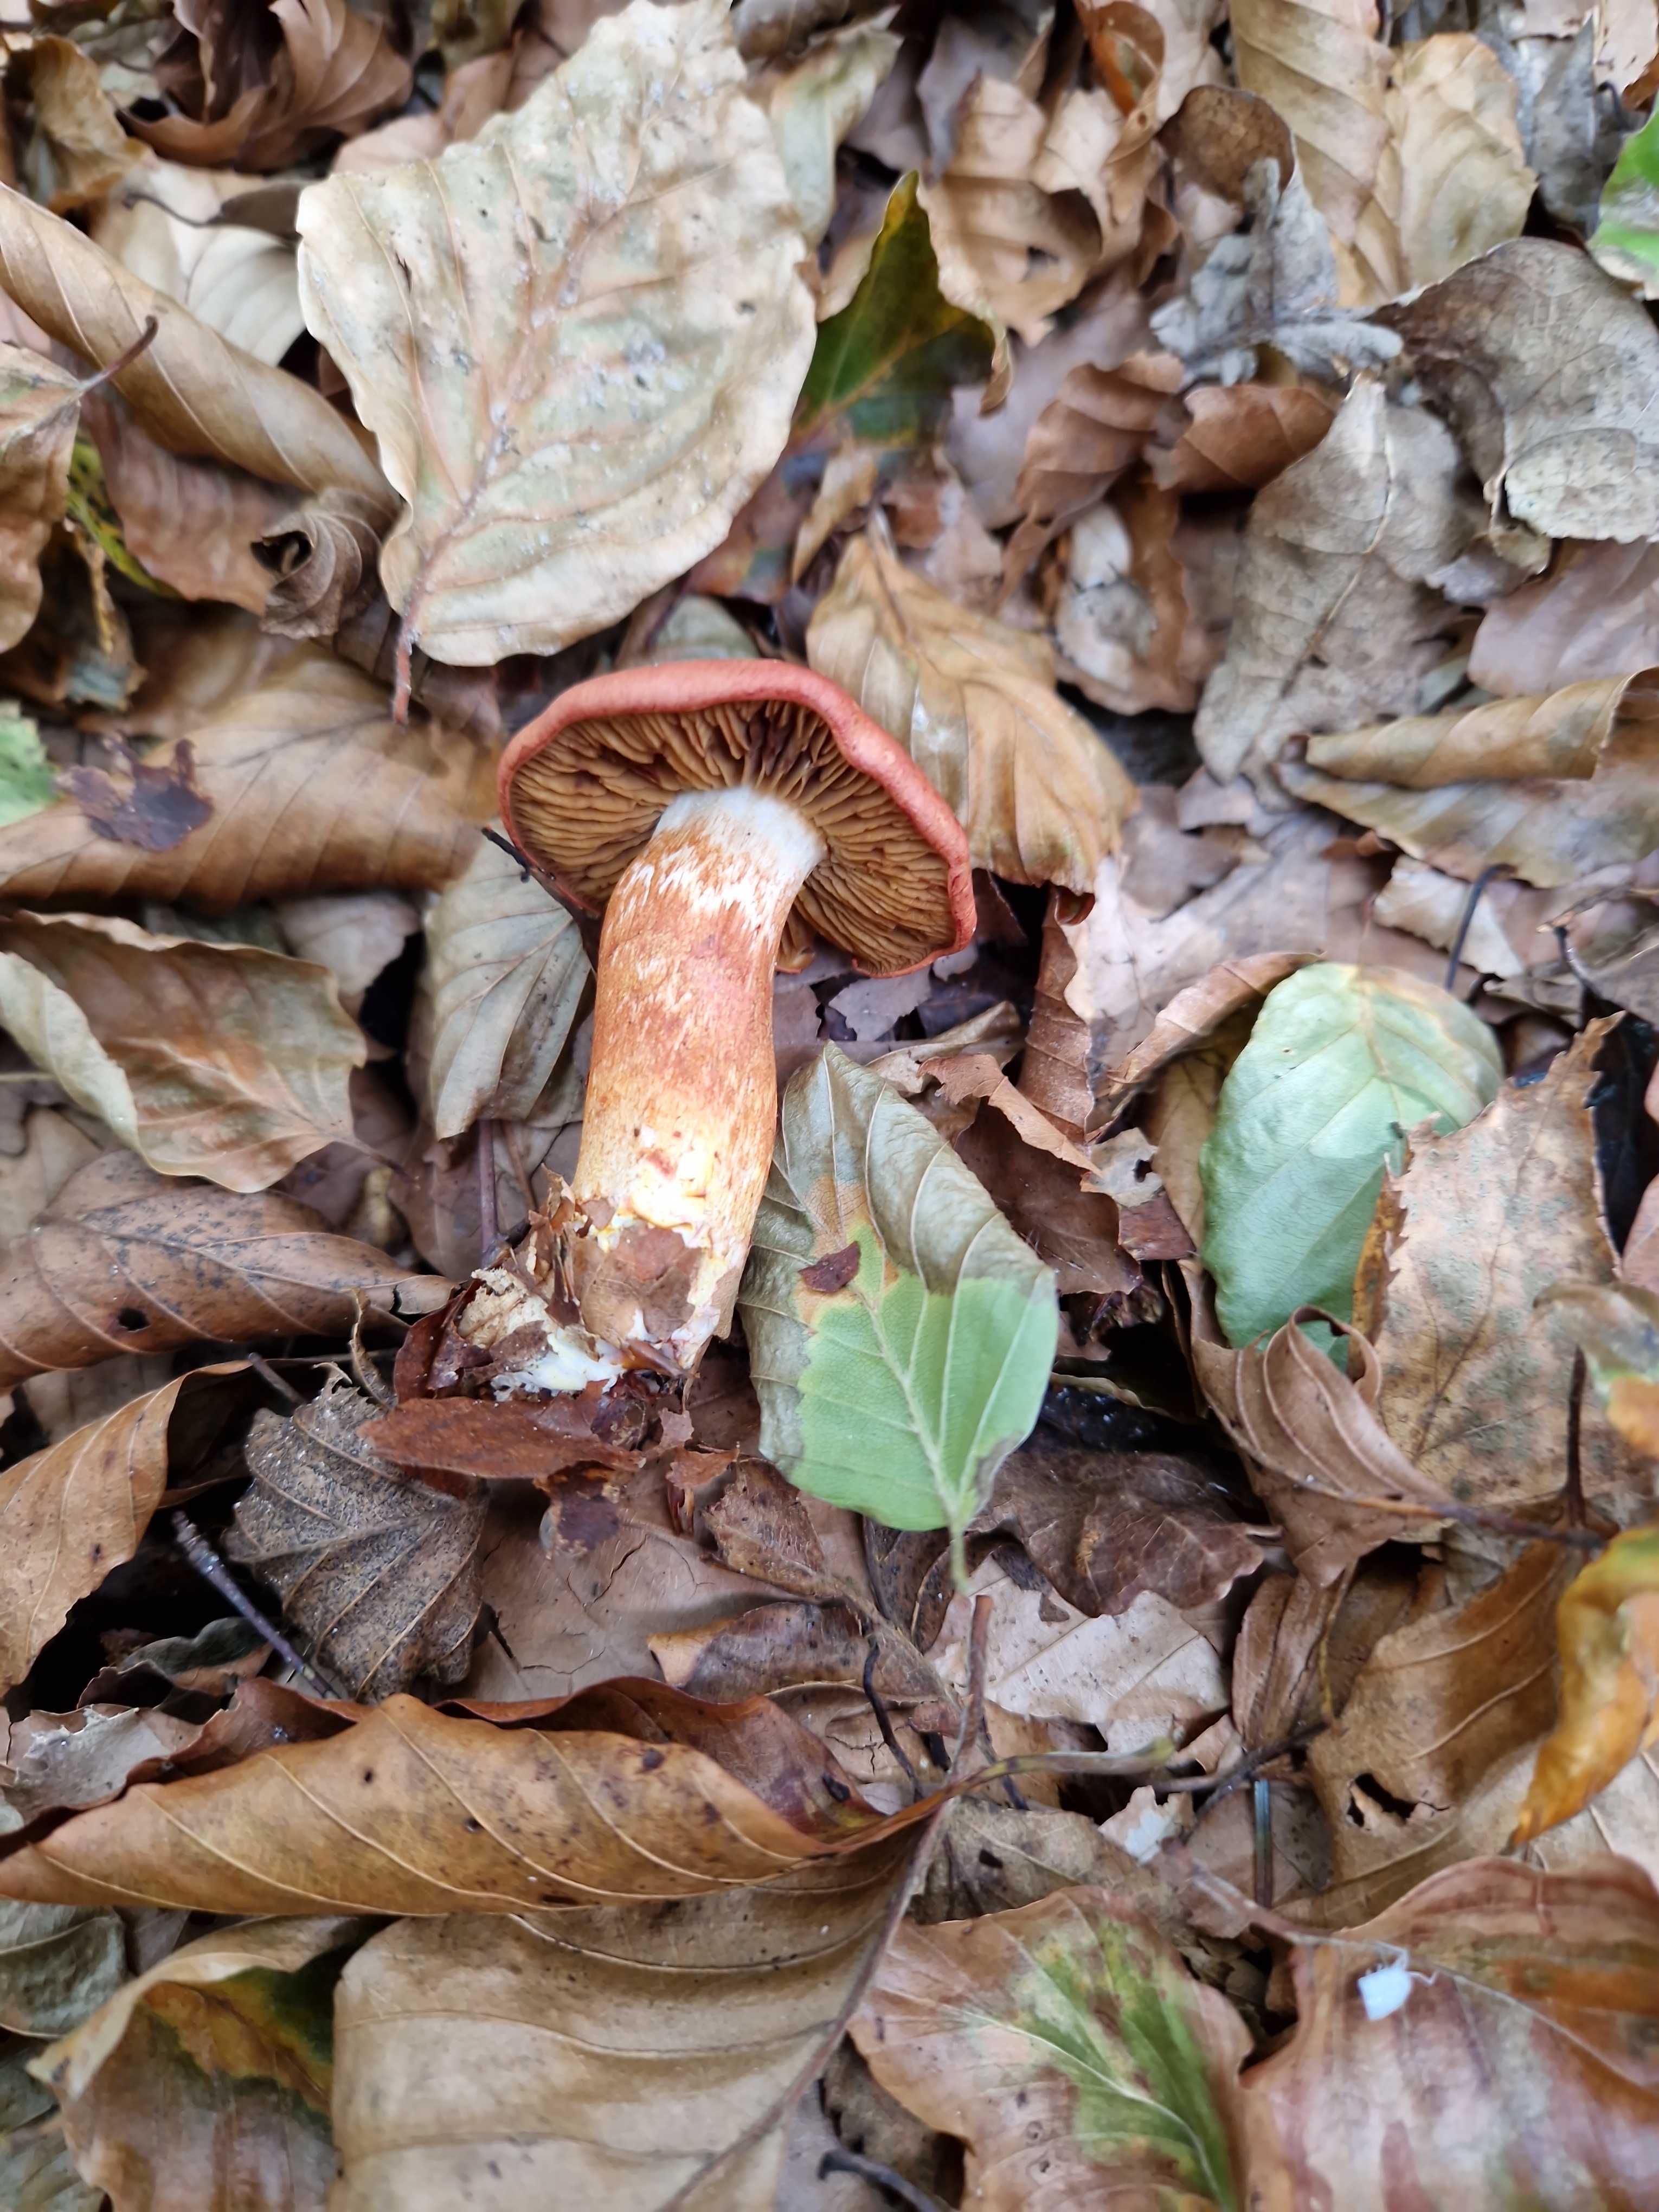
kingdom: Fungi
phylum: Basidiomycota
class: Agaricomycetes
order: Agaricales
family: Cortinariaceae
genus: Cortinarius
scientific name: Cortinarius bolaris
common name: cinnoberskællet slørhat
